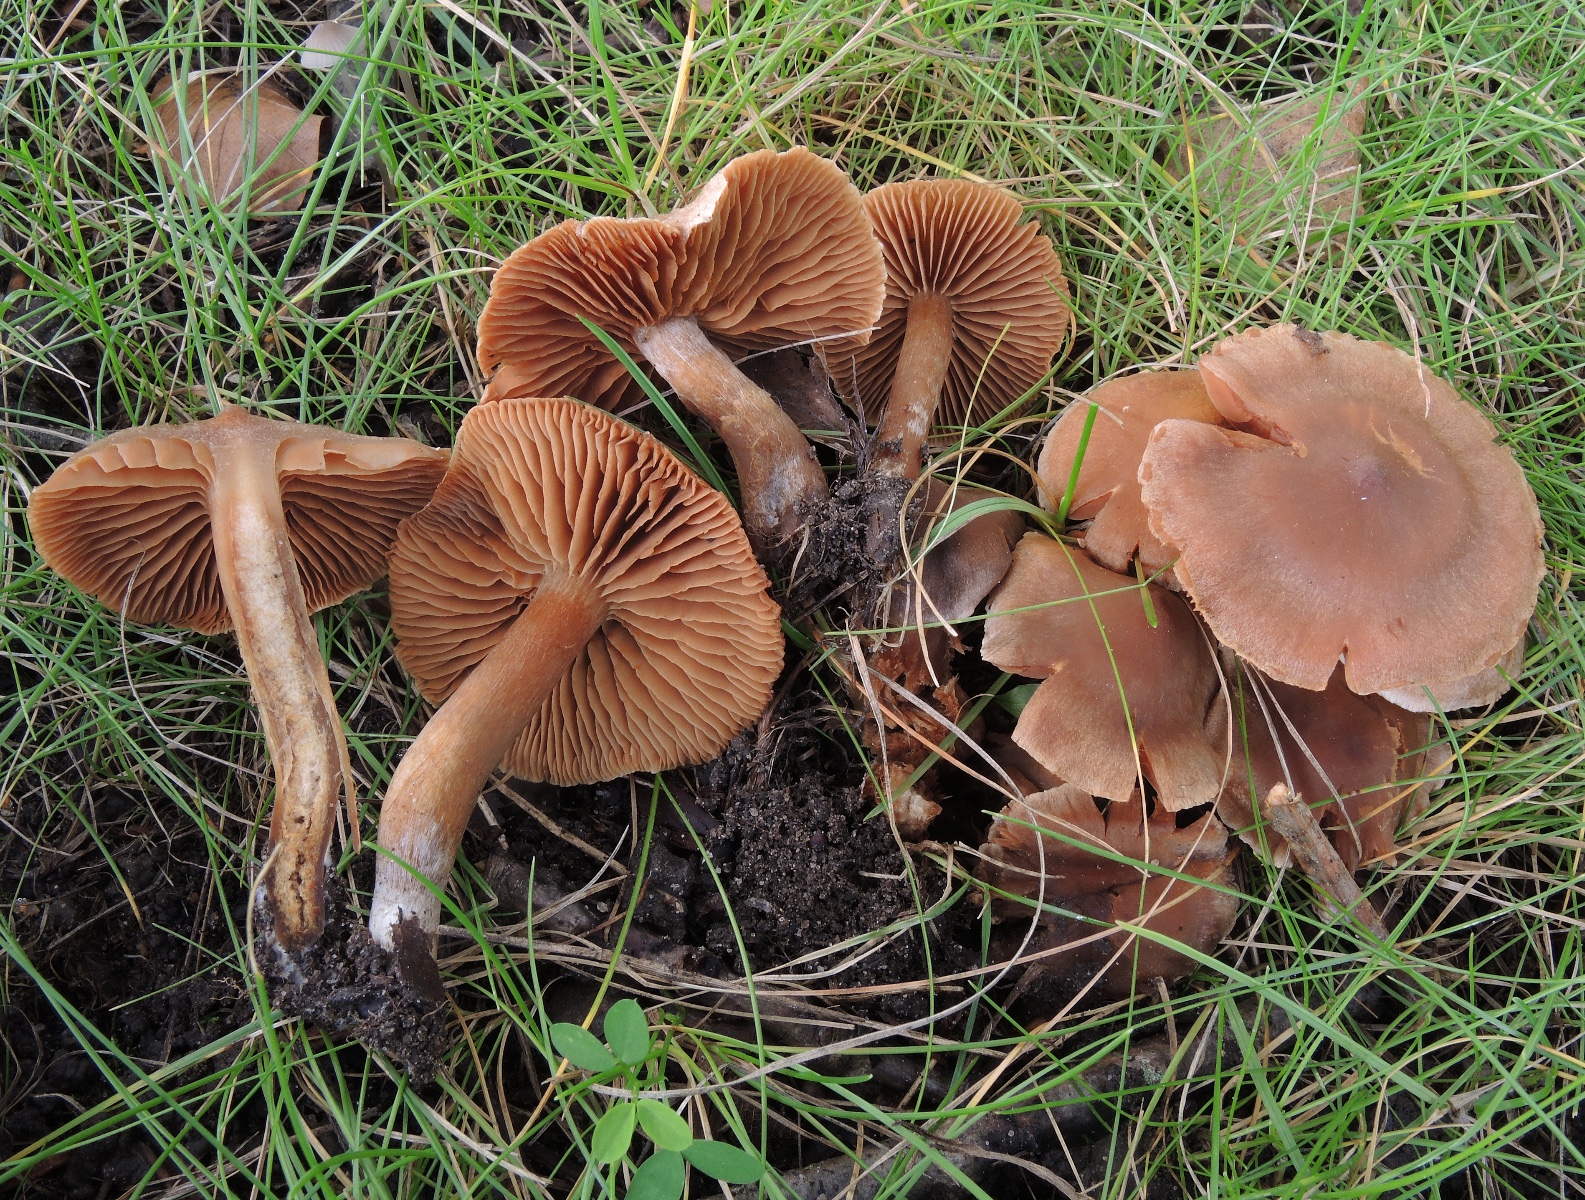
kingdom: Fungi
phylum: Basidiomycota
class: Agaricomycetes
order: Agaricales
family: Cortinariaceae
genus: Cortinarius
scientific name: Cortinarius parhonestus
